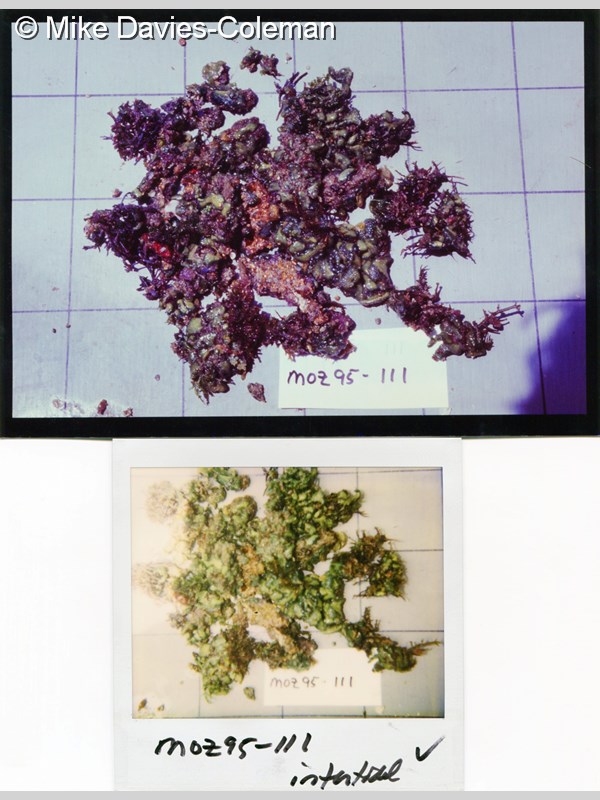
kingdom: Animalia
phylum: Chordata
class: Ascidiacea
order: Aplousobranchia
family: Didemnidae
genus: Diplosoma
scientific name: Diplosoma
